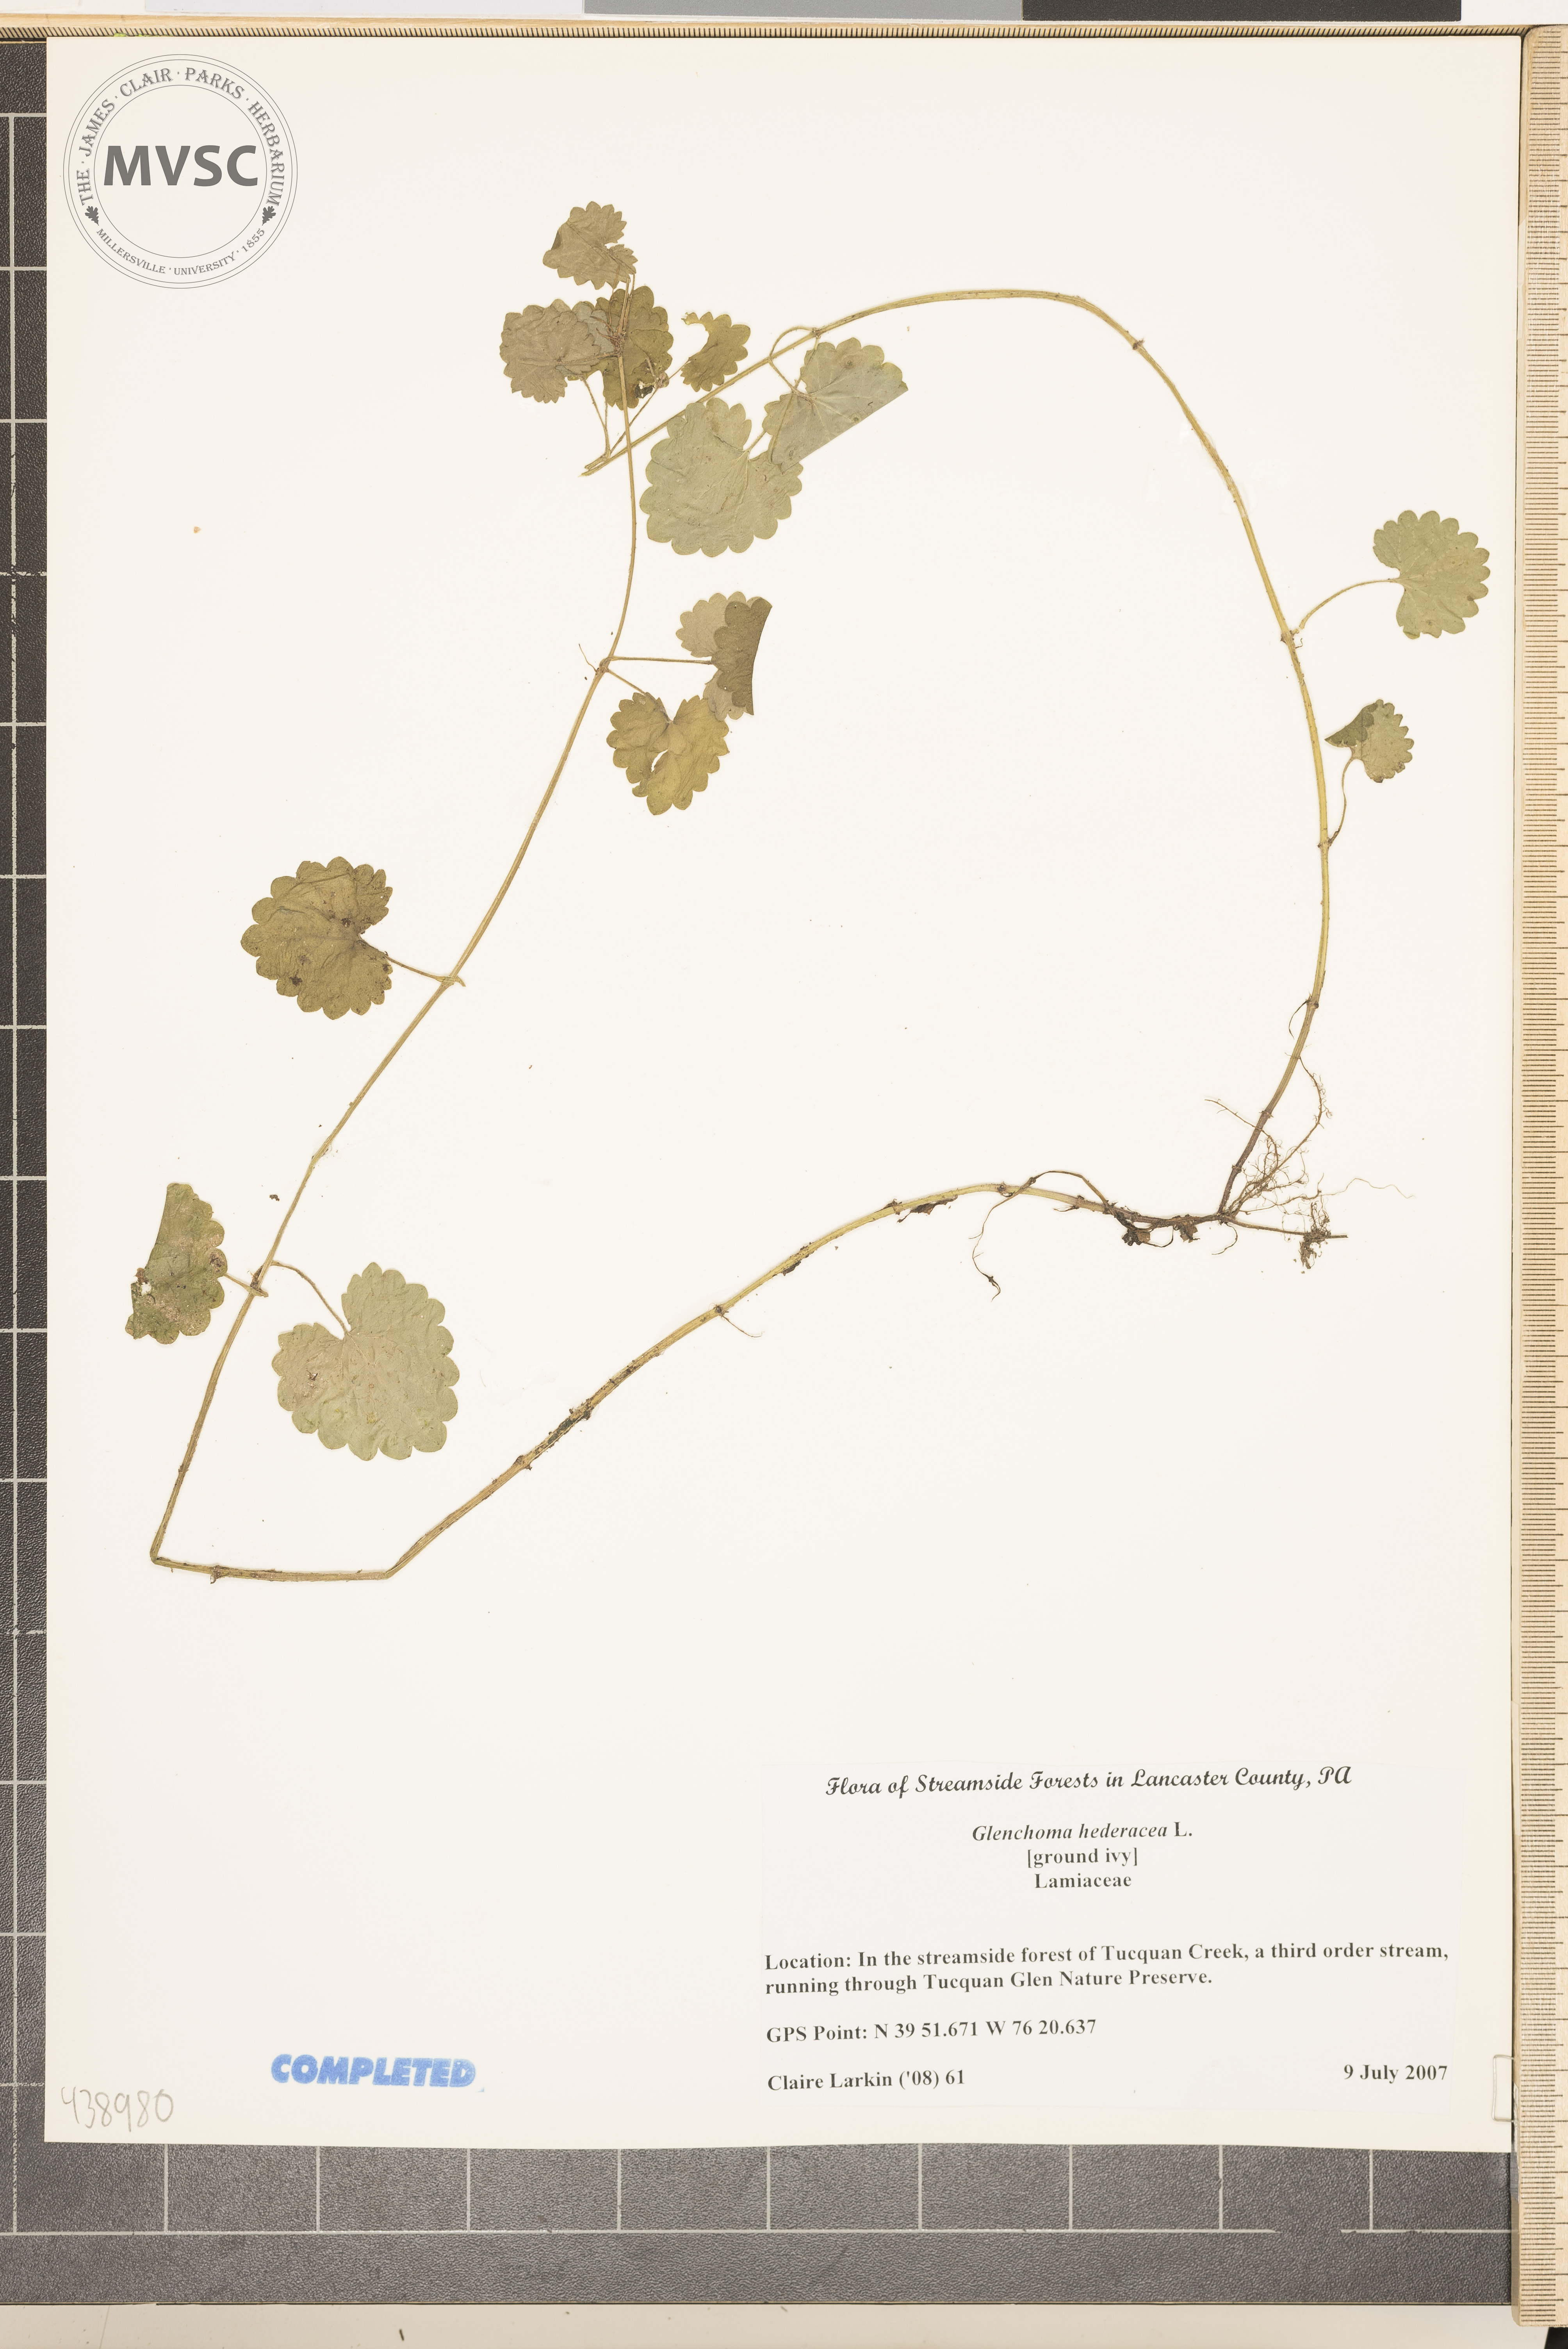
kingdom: Plantae
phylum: Tracheophyta
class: Magnoliopsida
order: Lamiales
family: Lamiaceae
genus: Glechoma
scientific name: Glechoma hederacea
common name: Ground ivy
